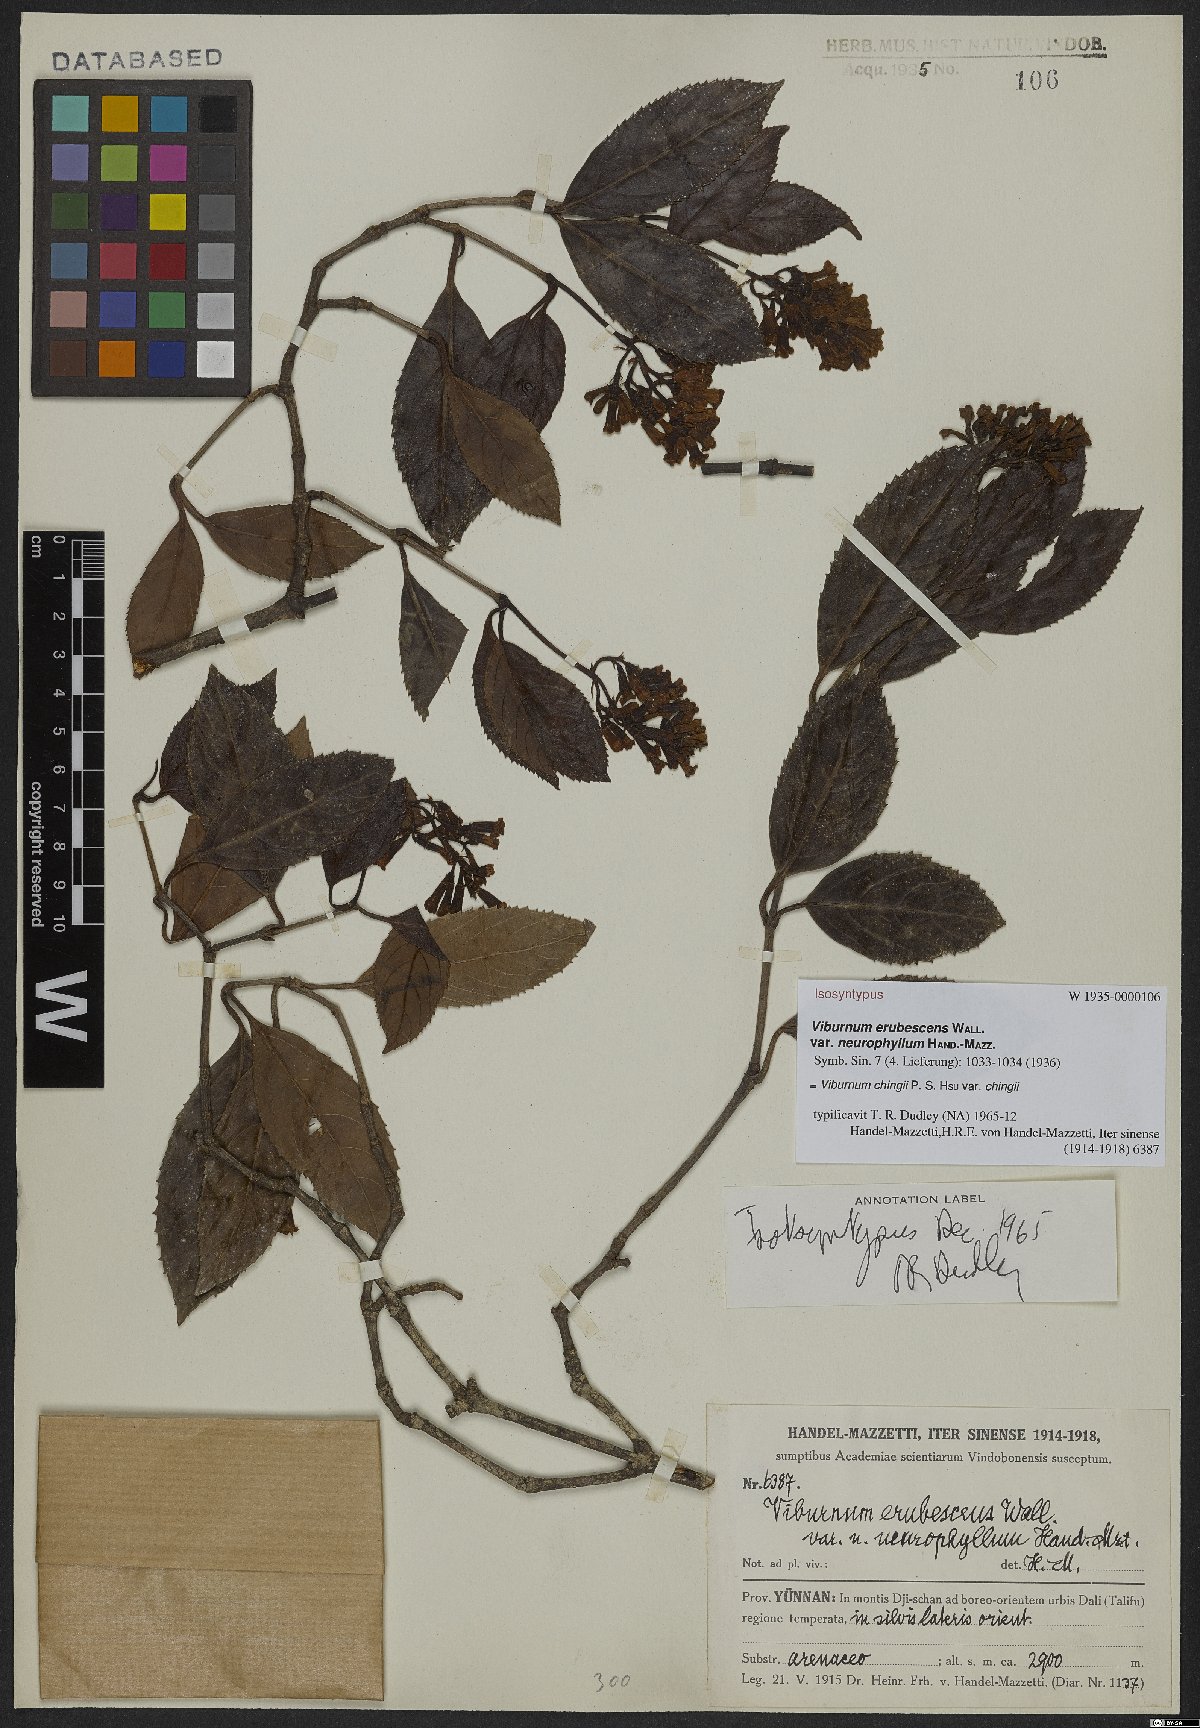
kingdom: Plantae
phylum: Tracheophyta
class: Magnoliopsida
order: Dipsacales
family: Viburnaceae
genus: Viburnum
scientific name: Viburnum chingii
